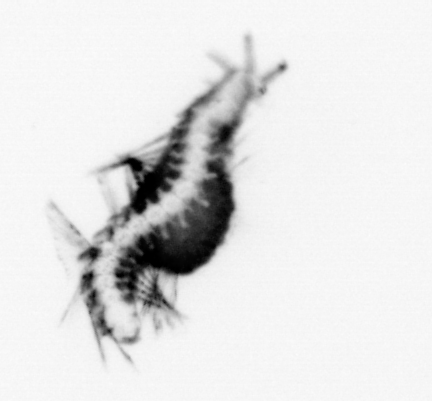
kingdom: Animalia
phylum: Annelida
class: Polychaeta
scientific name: Polychaeta
